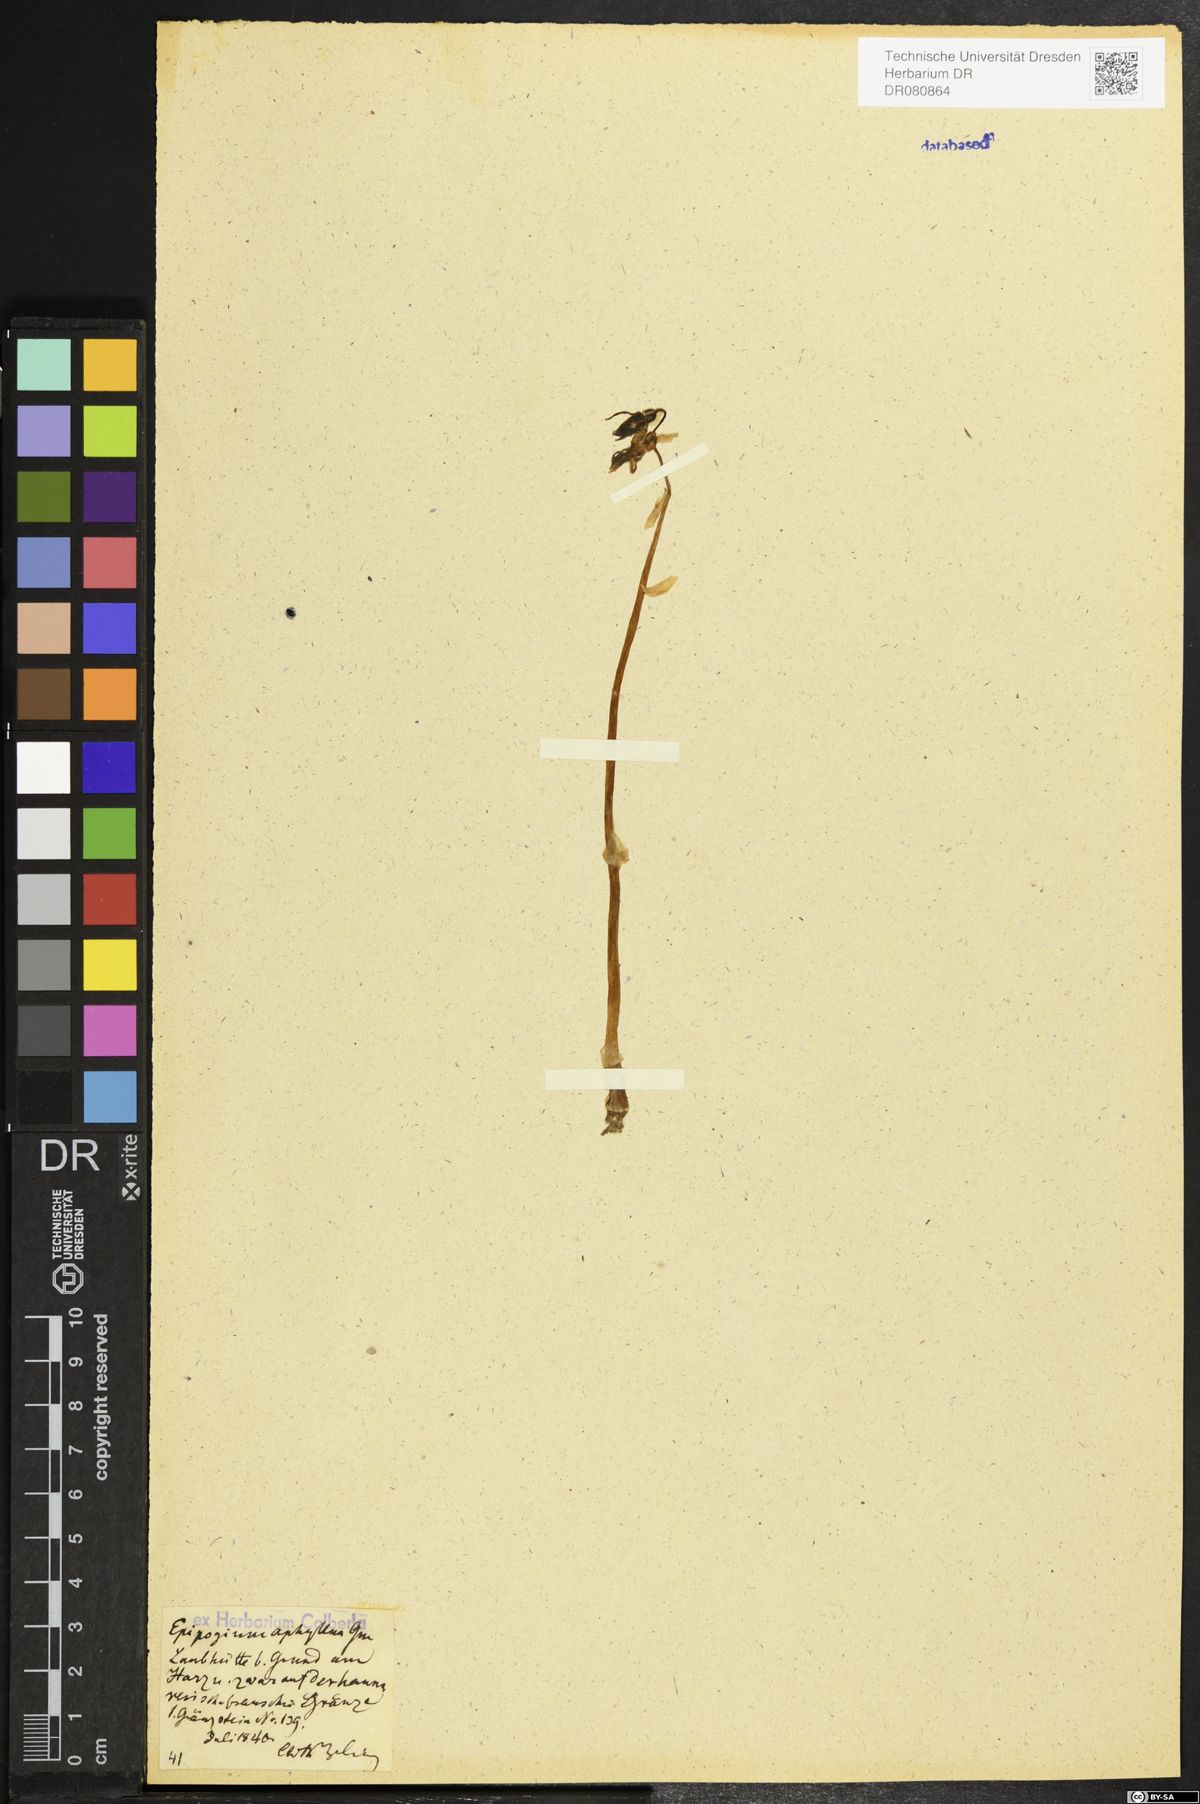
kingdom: Plantae
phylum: Tracheophyta
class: Liliopsida
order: Asparagales
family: Orchidaceae
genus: Epipogium
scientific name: Epipogium aphyllum
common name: Ghost orchid
